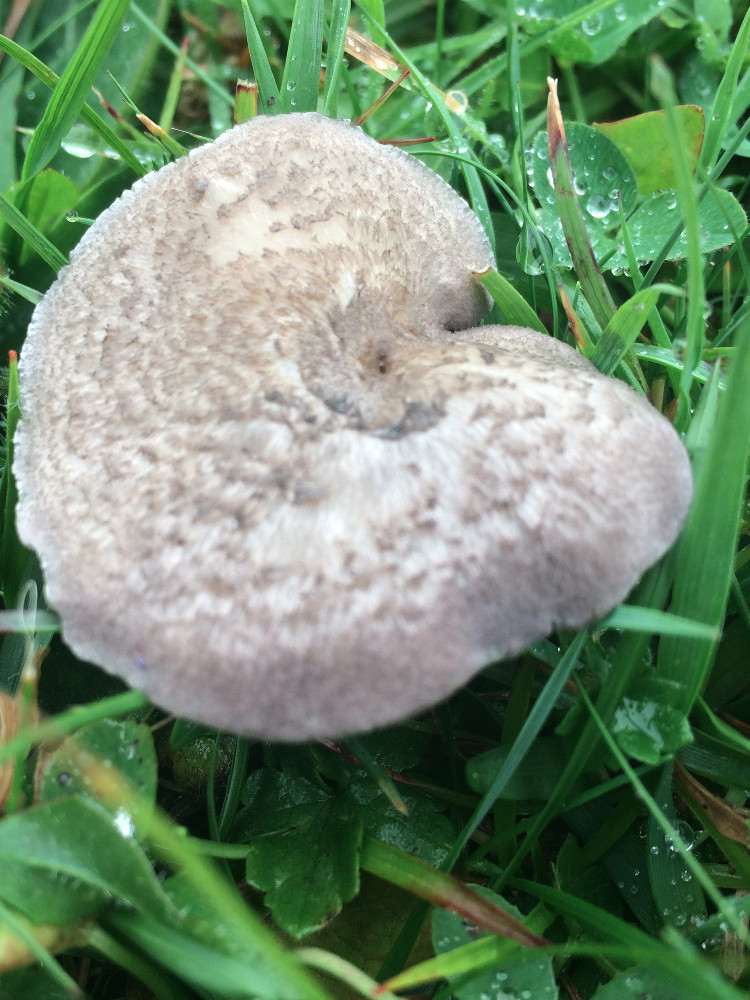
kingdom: Fungi
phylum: Basidiomycota
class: Agaricomycetes
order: Agaricales
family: Entolomataceae
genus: Entoloma
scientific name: Entoloma mougeotii
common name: violetgrå rødblad
